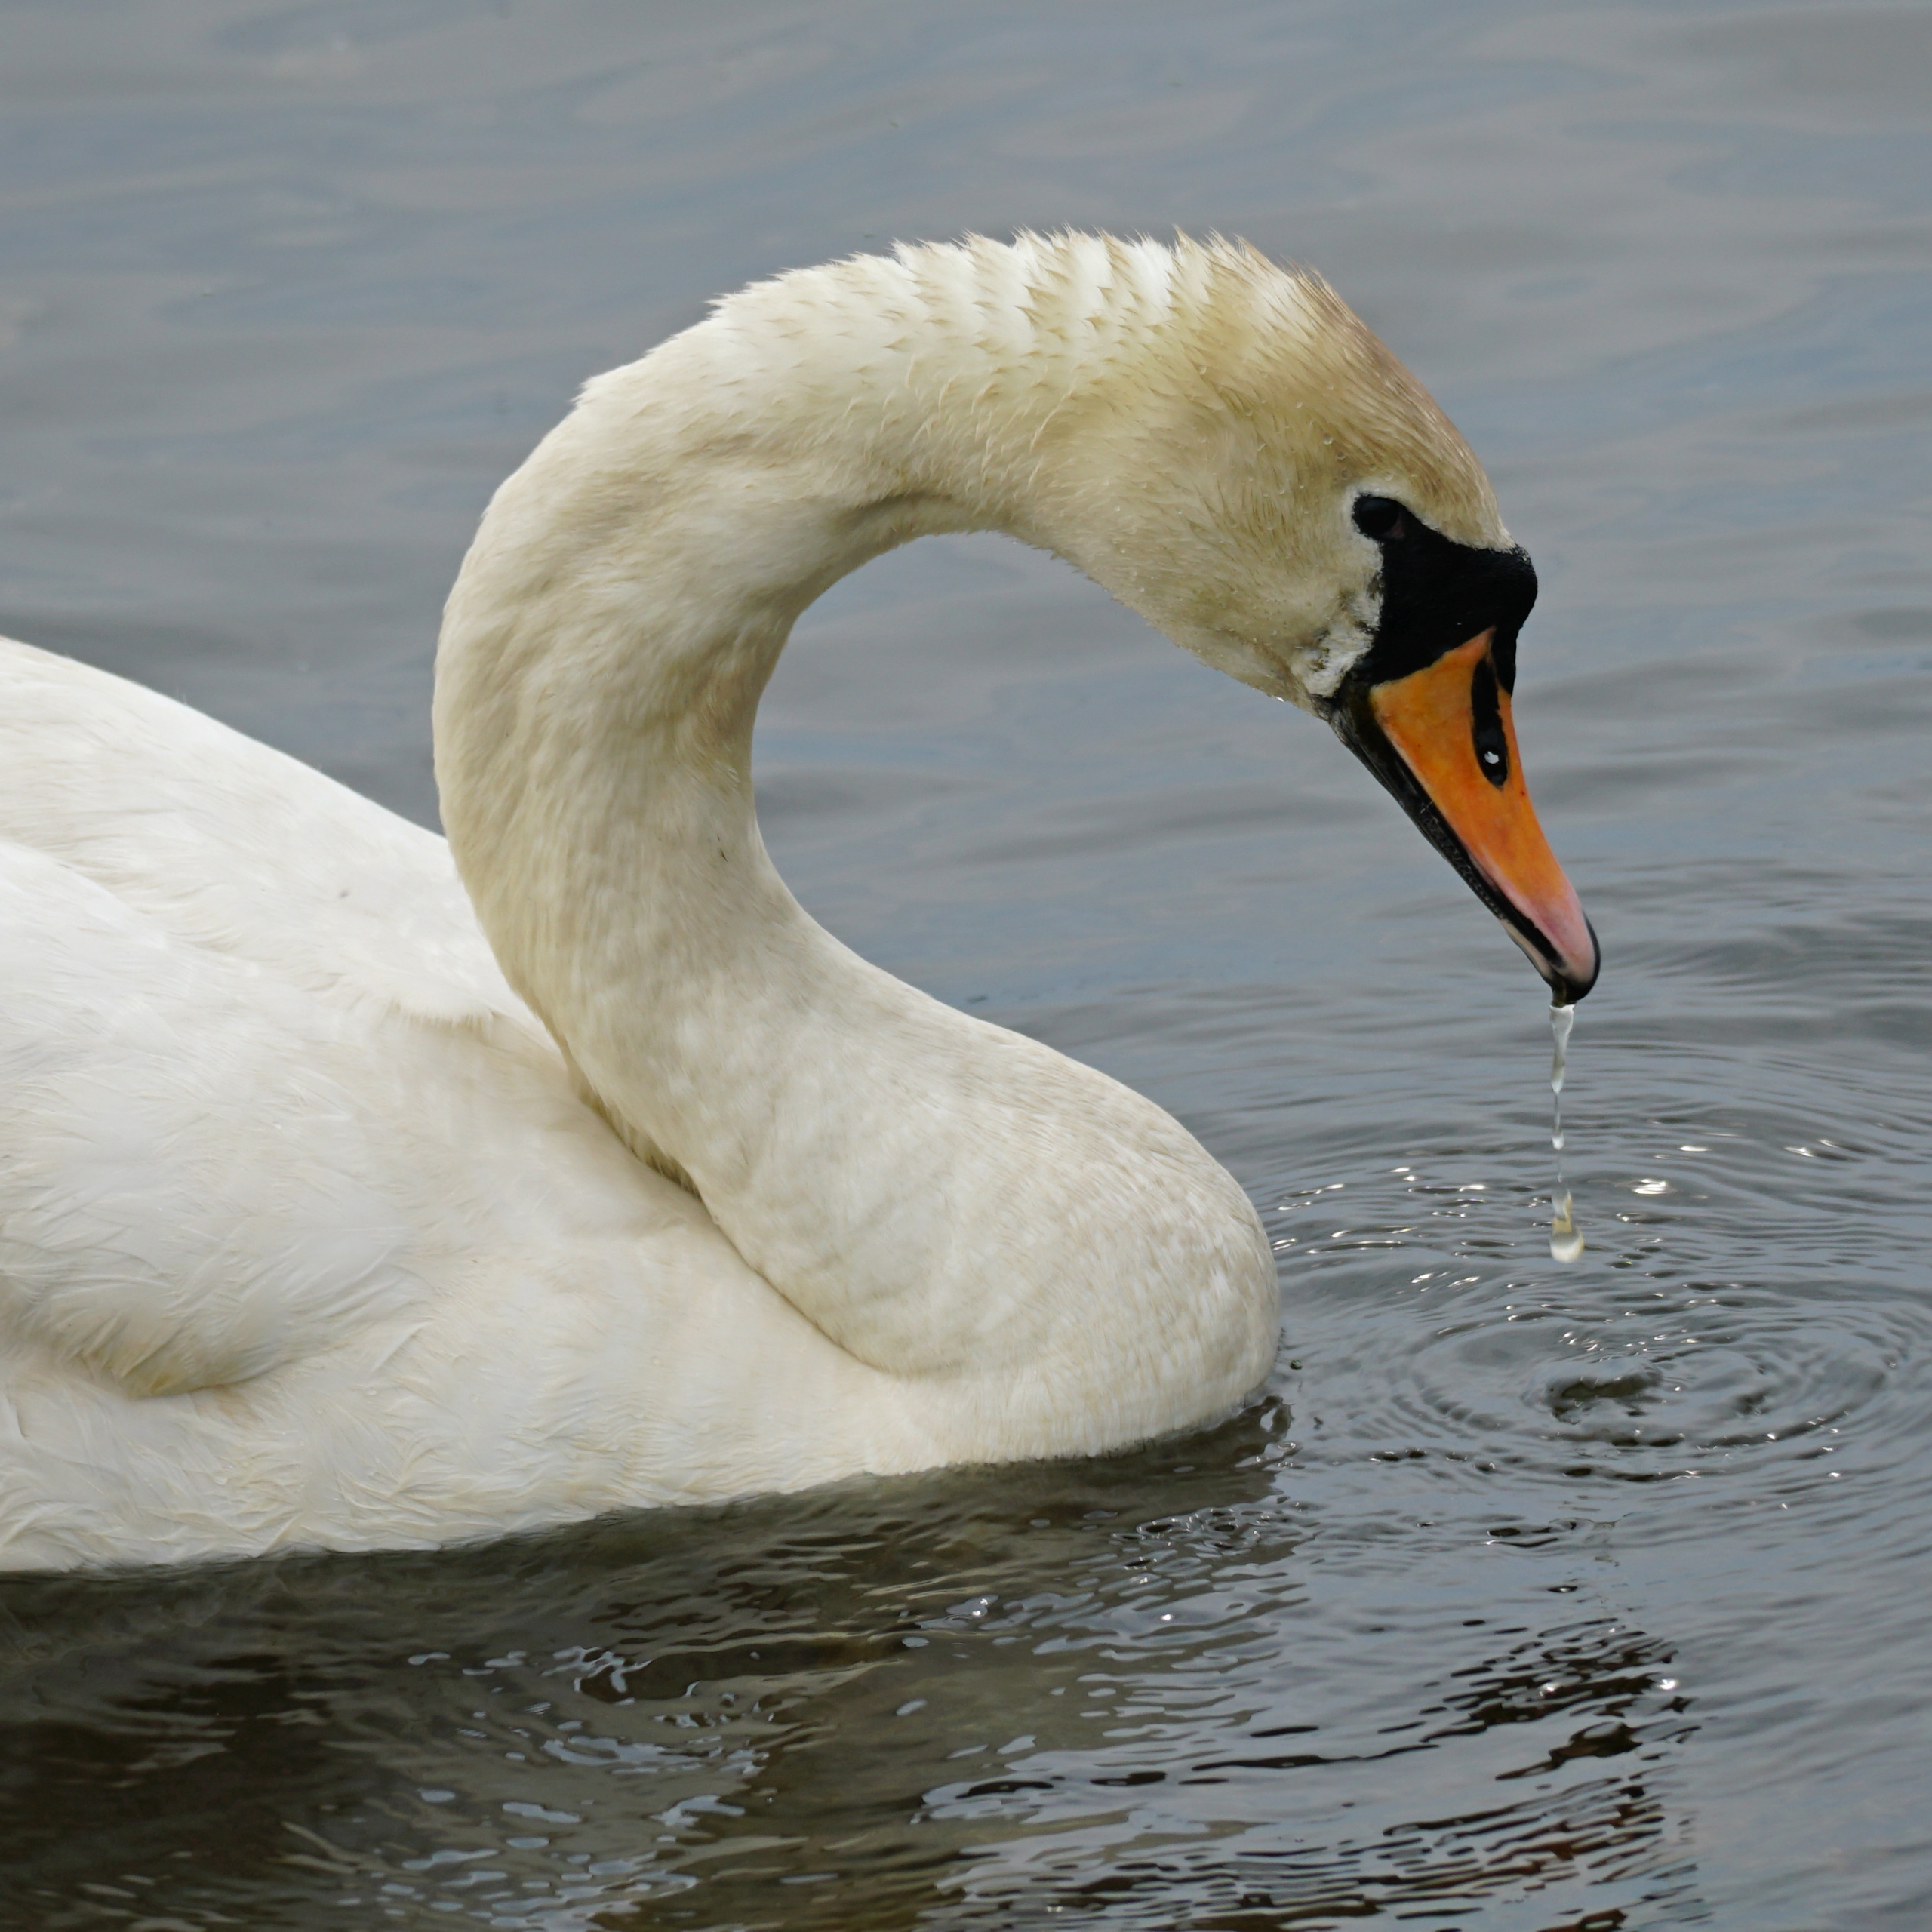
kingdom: Animalia
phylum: Chordata
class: Aves
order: Anseriformes
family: Anatidae
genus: Cygnus
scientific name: Cygnus olor
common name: Knopsvane
